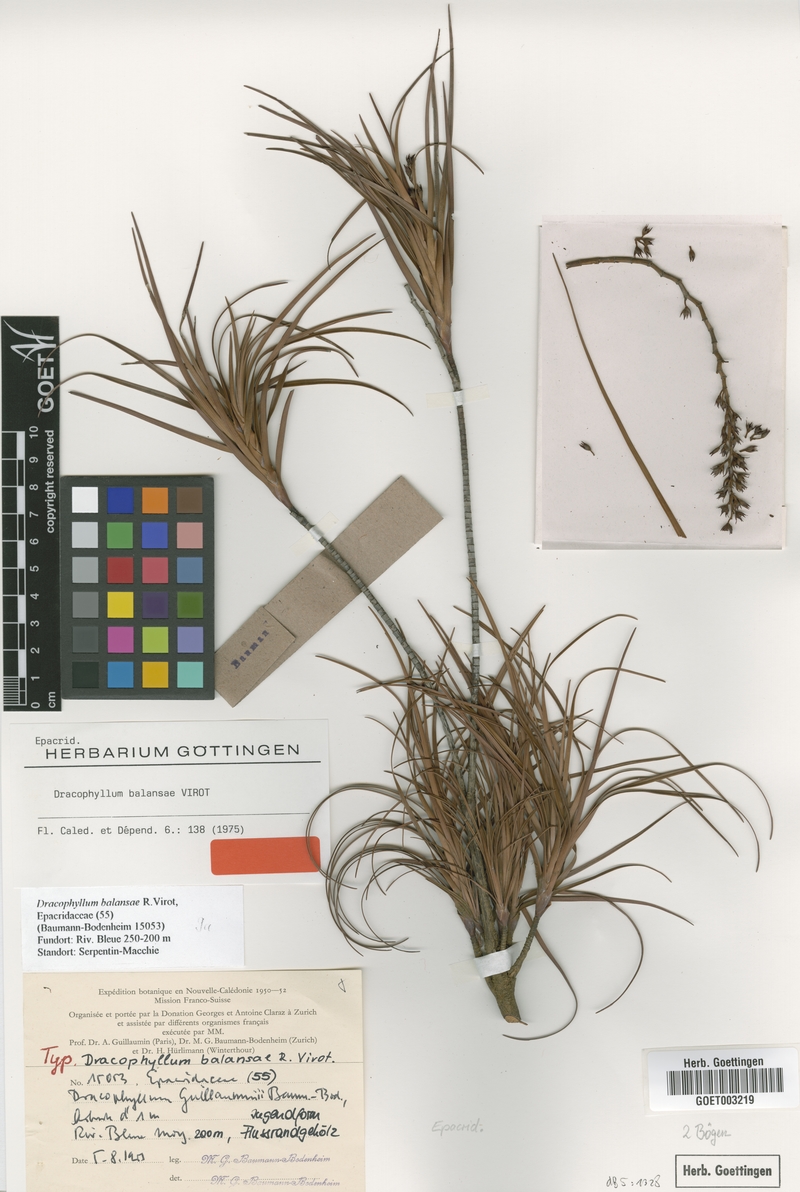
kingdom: Plantae
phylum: Tracheophyta
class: Magnoliopsida
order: Ericales
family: Ericaceae
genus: Dracophyllum
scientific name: Dracophyllum balansae
